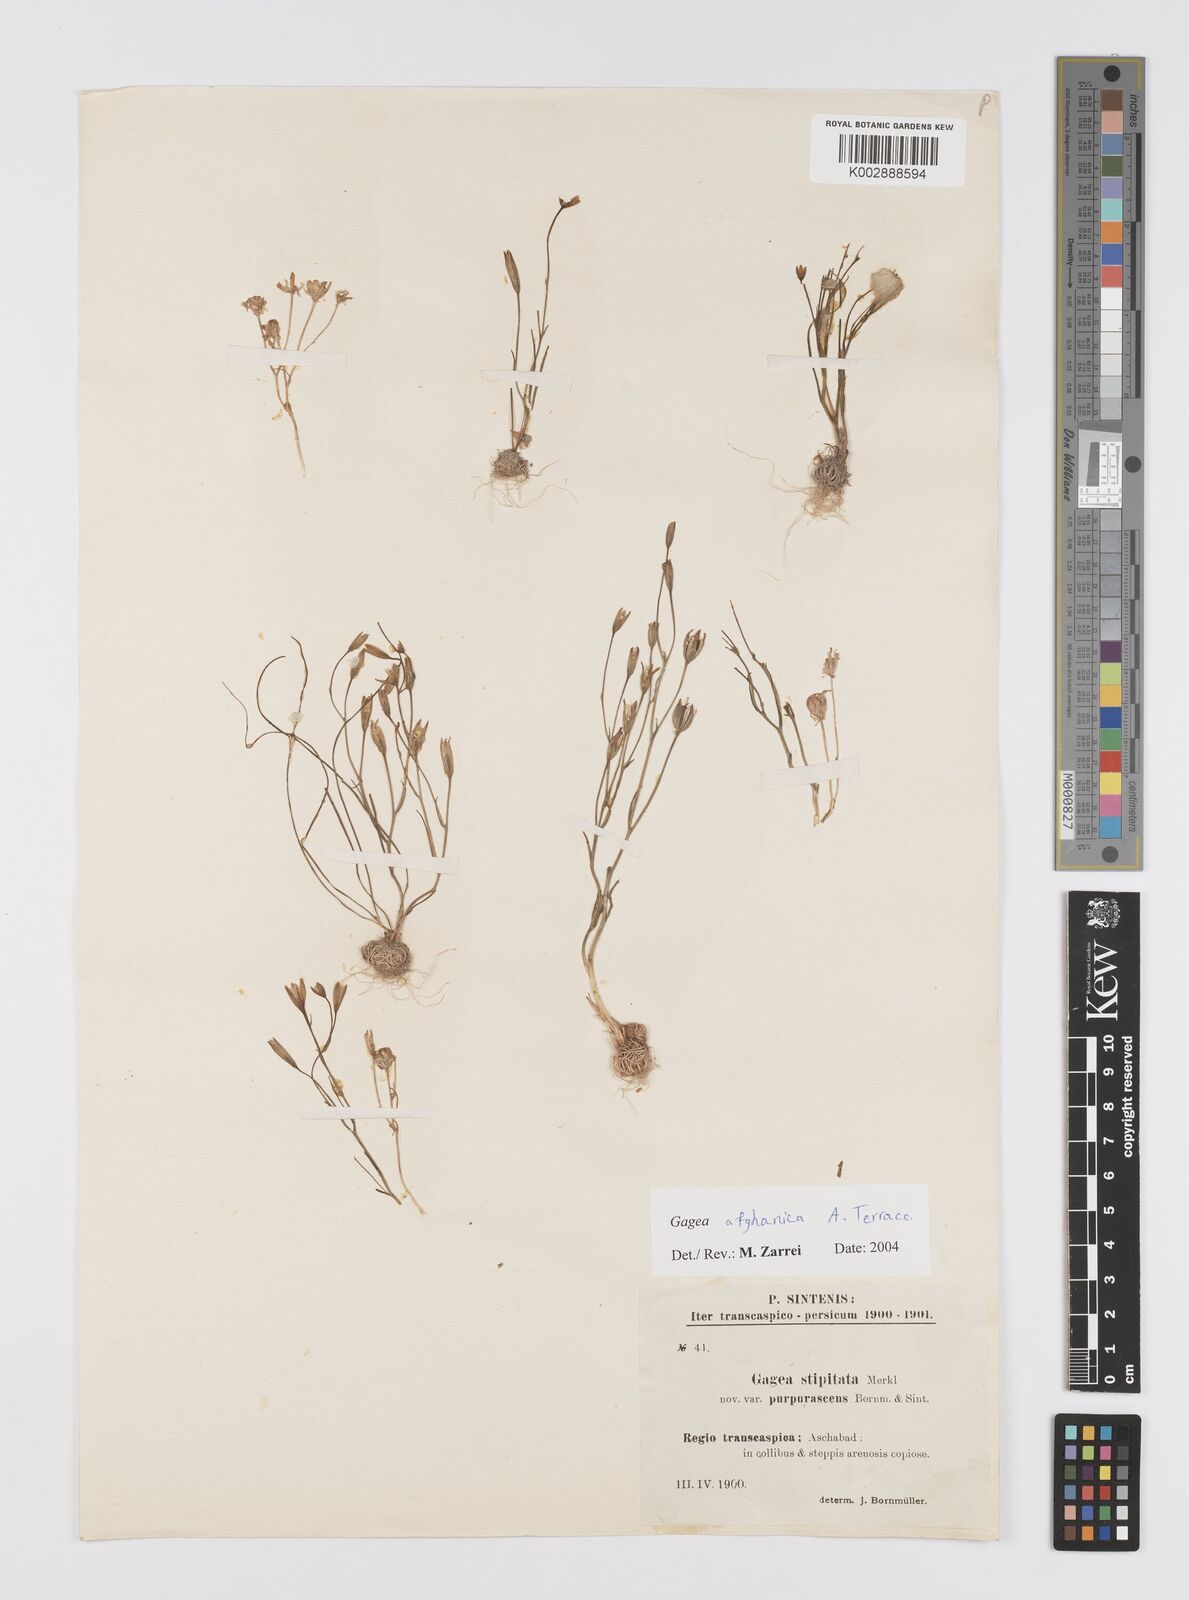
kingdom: Plantae
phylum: Tracheophyta
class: Liliopsida
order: Liliales
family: Liliaceae
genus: Gagea
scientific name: Gagea chlorantha
